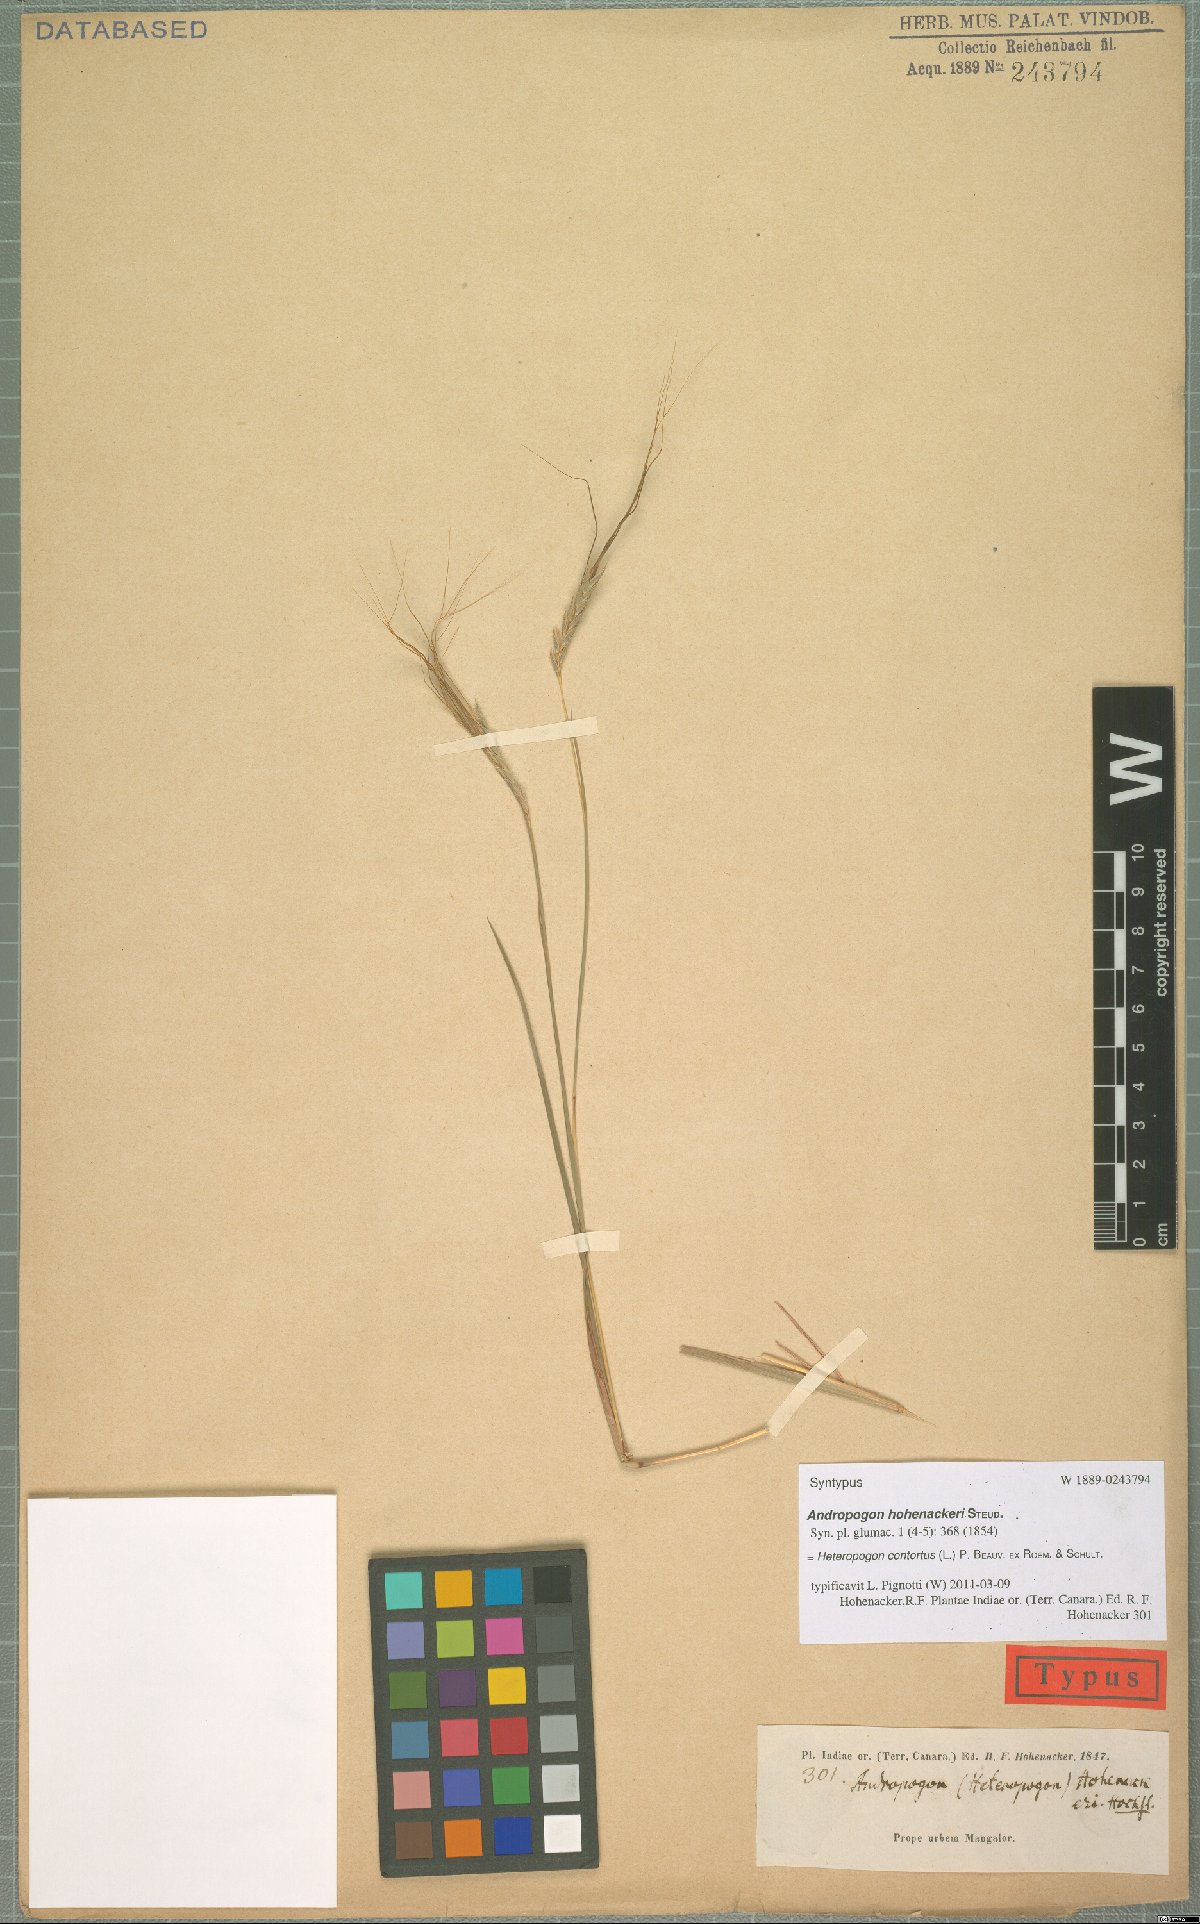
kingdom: Plantae
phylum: Tracheophyta
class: Liliopsida
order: Poales
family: Poaceae
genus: Heteropogon
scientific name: Heteropogon contortus
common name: Tanglehead
